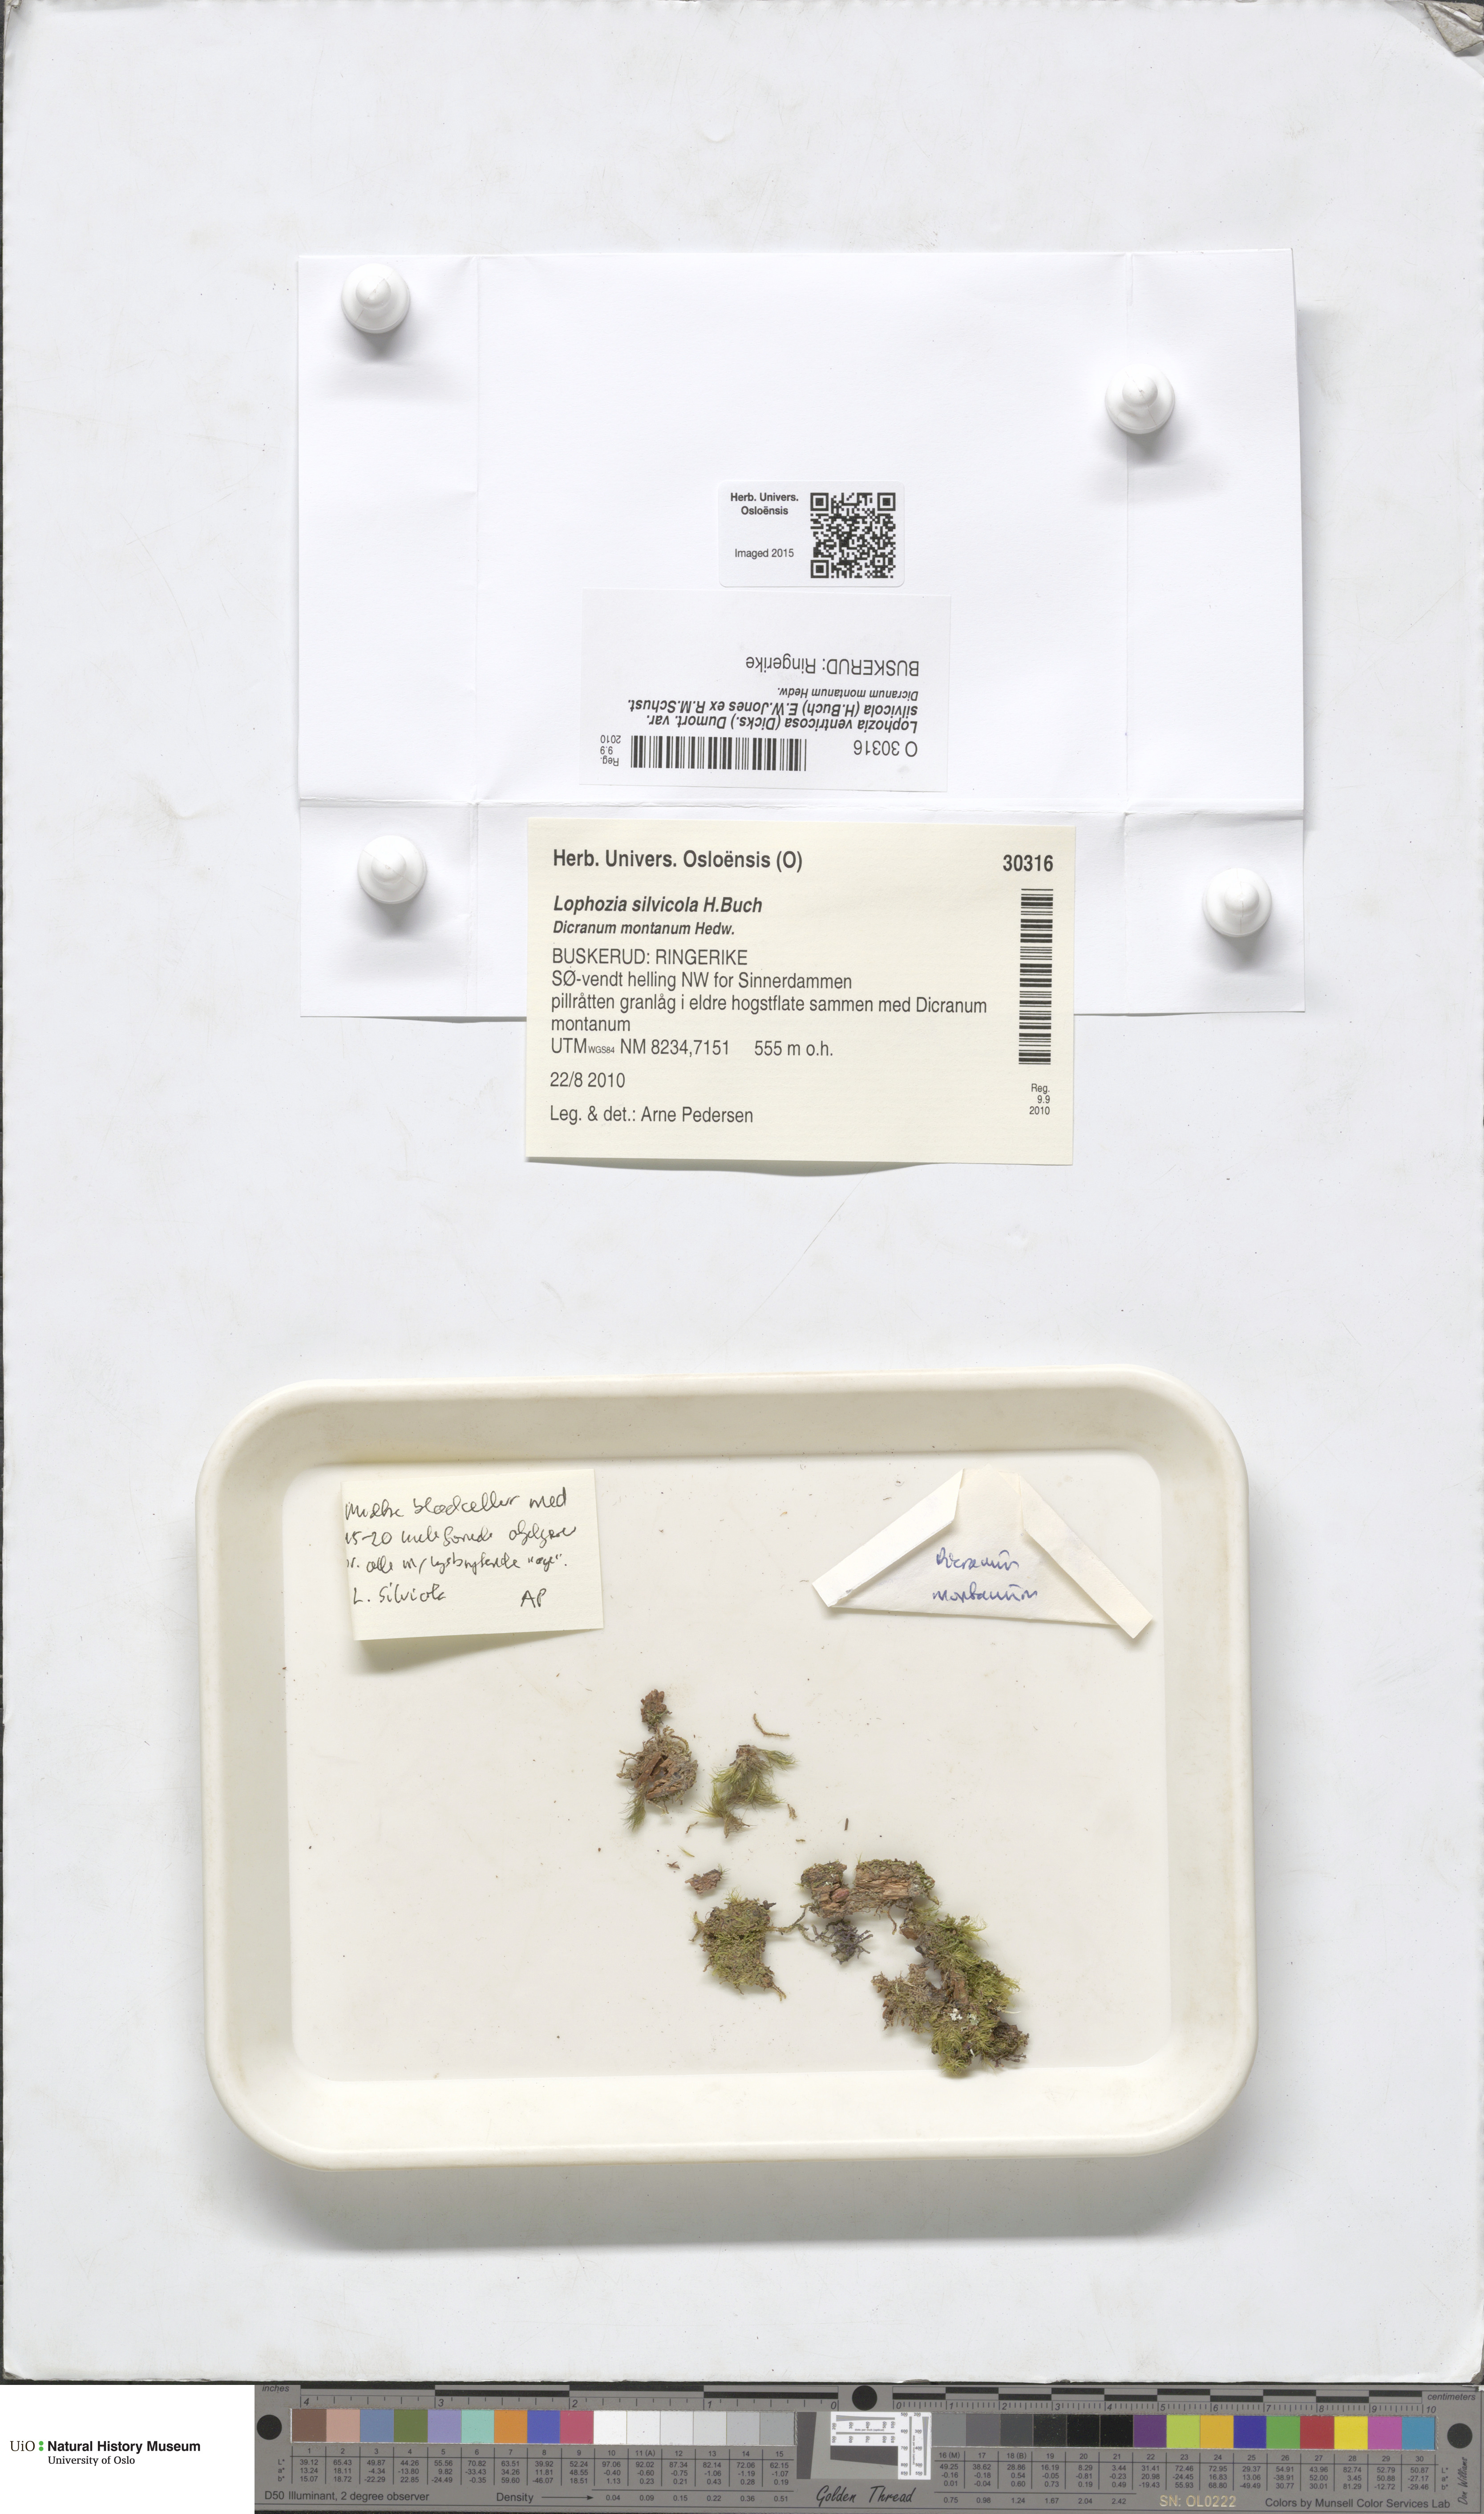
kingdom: Plantae
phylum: Marchantiophyta
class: Jungermanniopsida
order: Jungermanniales
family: Lophoziaceae
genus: Lophozia
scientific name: Lophozia silvicola
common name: Forest notchwort
